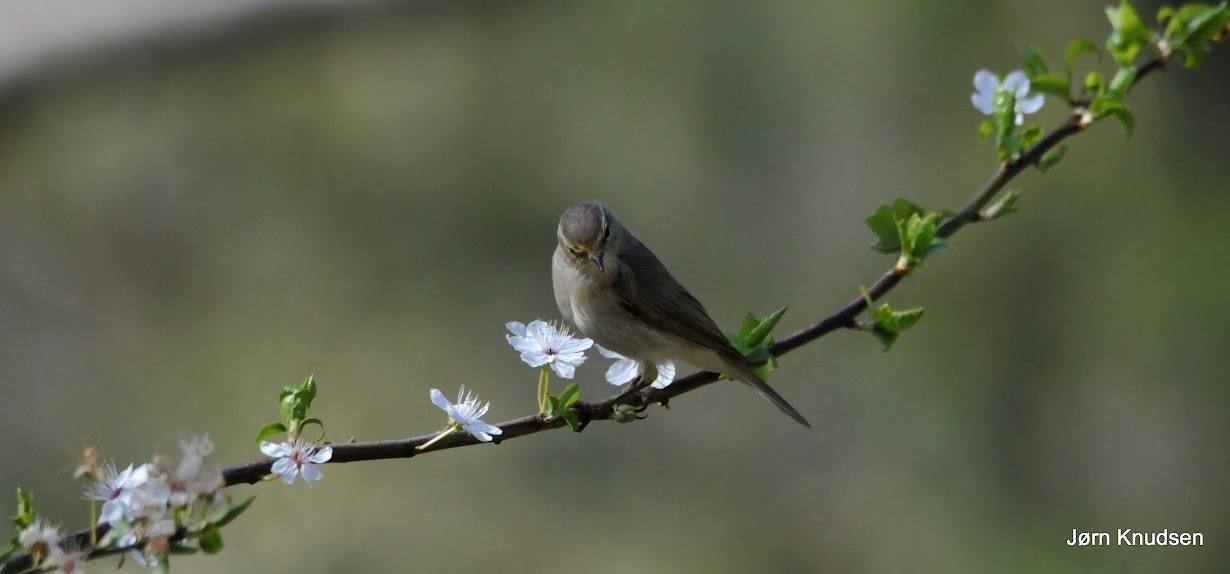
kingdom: Animalia
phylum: Chordata
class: Aves
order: Passeriformes
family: Phylloscopidae
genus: Phylloscopus
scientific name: Phylloscopus collybita
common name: Gransanger
